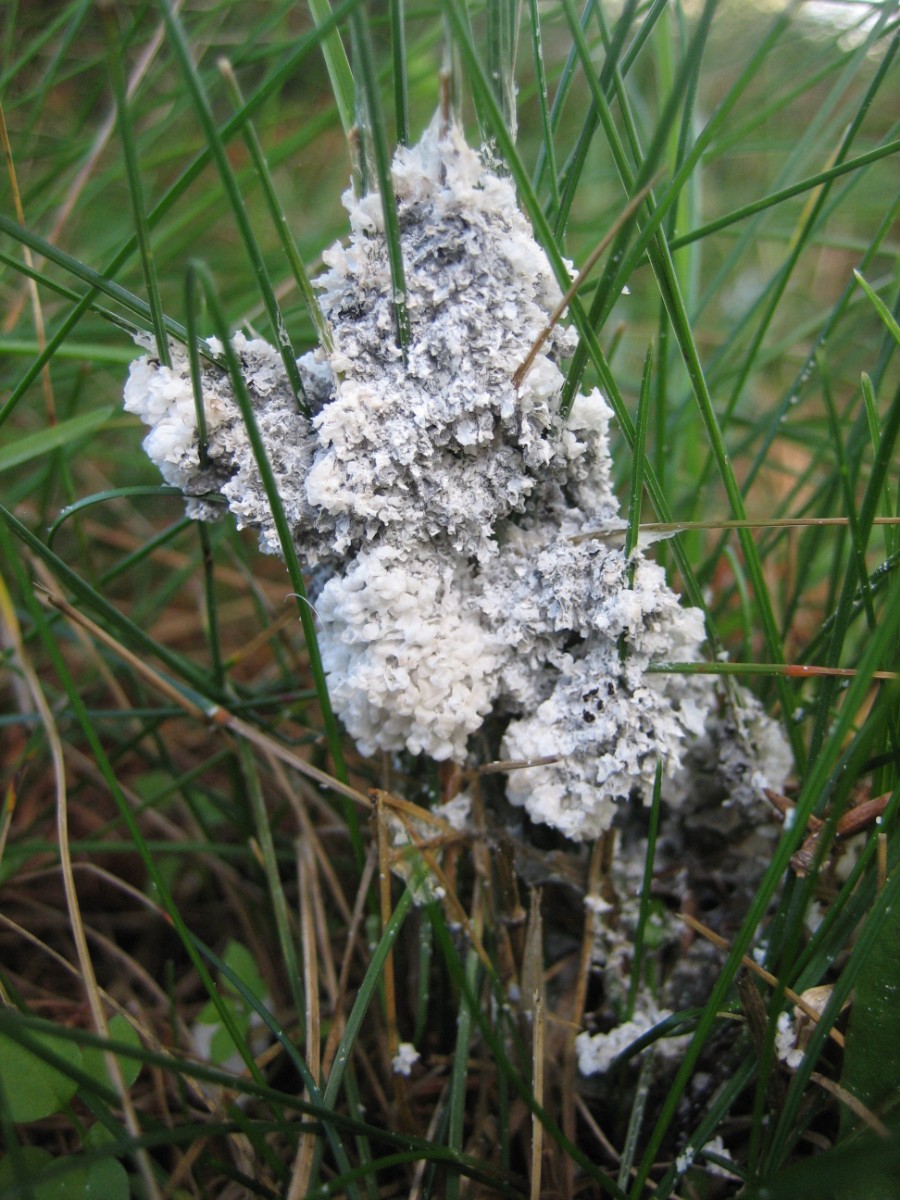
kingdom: Protozoa
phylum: Mycetozoa
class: Myxomycetes
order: Physarales
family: Physaraceae
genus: Didymium
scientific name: Didymium
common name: urteskum
